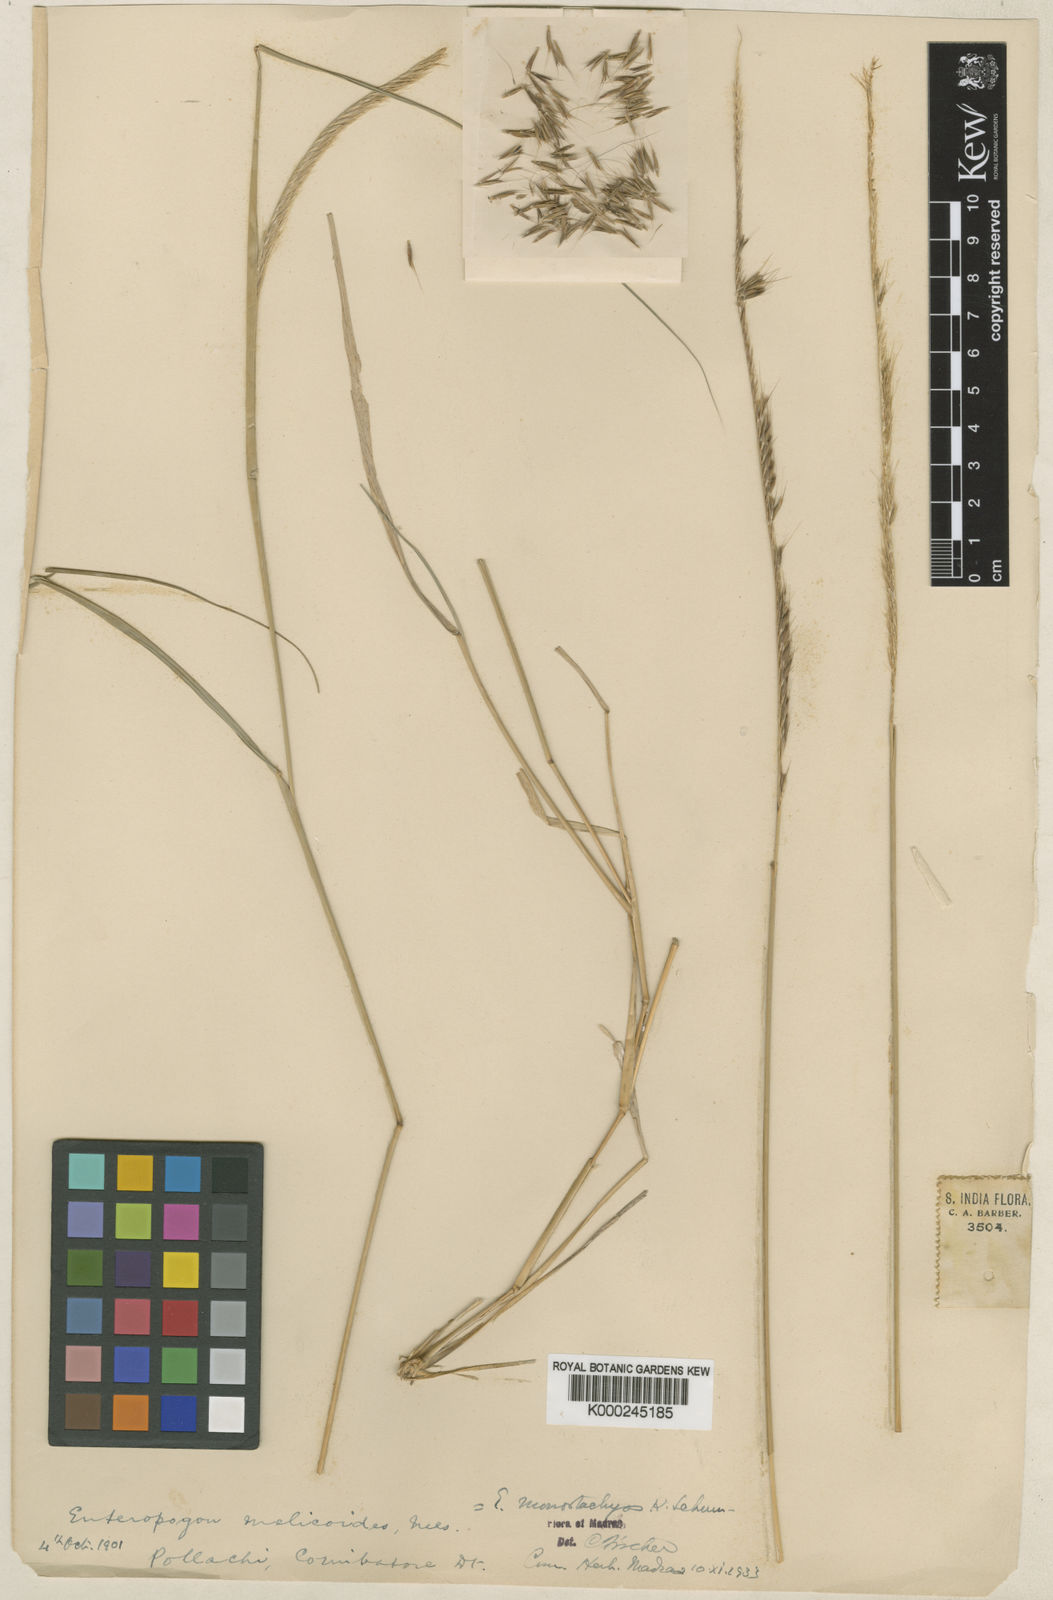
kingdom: Plantae
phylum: Tracheophyta
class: Liliopsida
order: Poales
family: Poaceae
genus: Enteropogon
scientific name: Enteropogon
